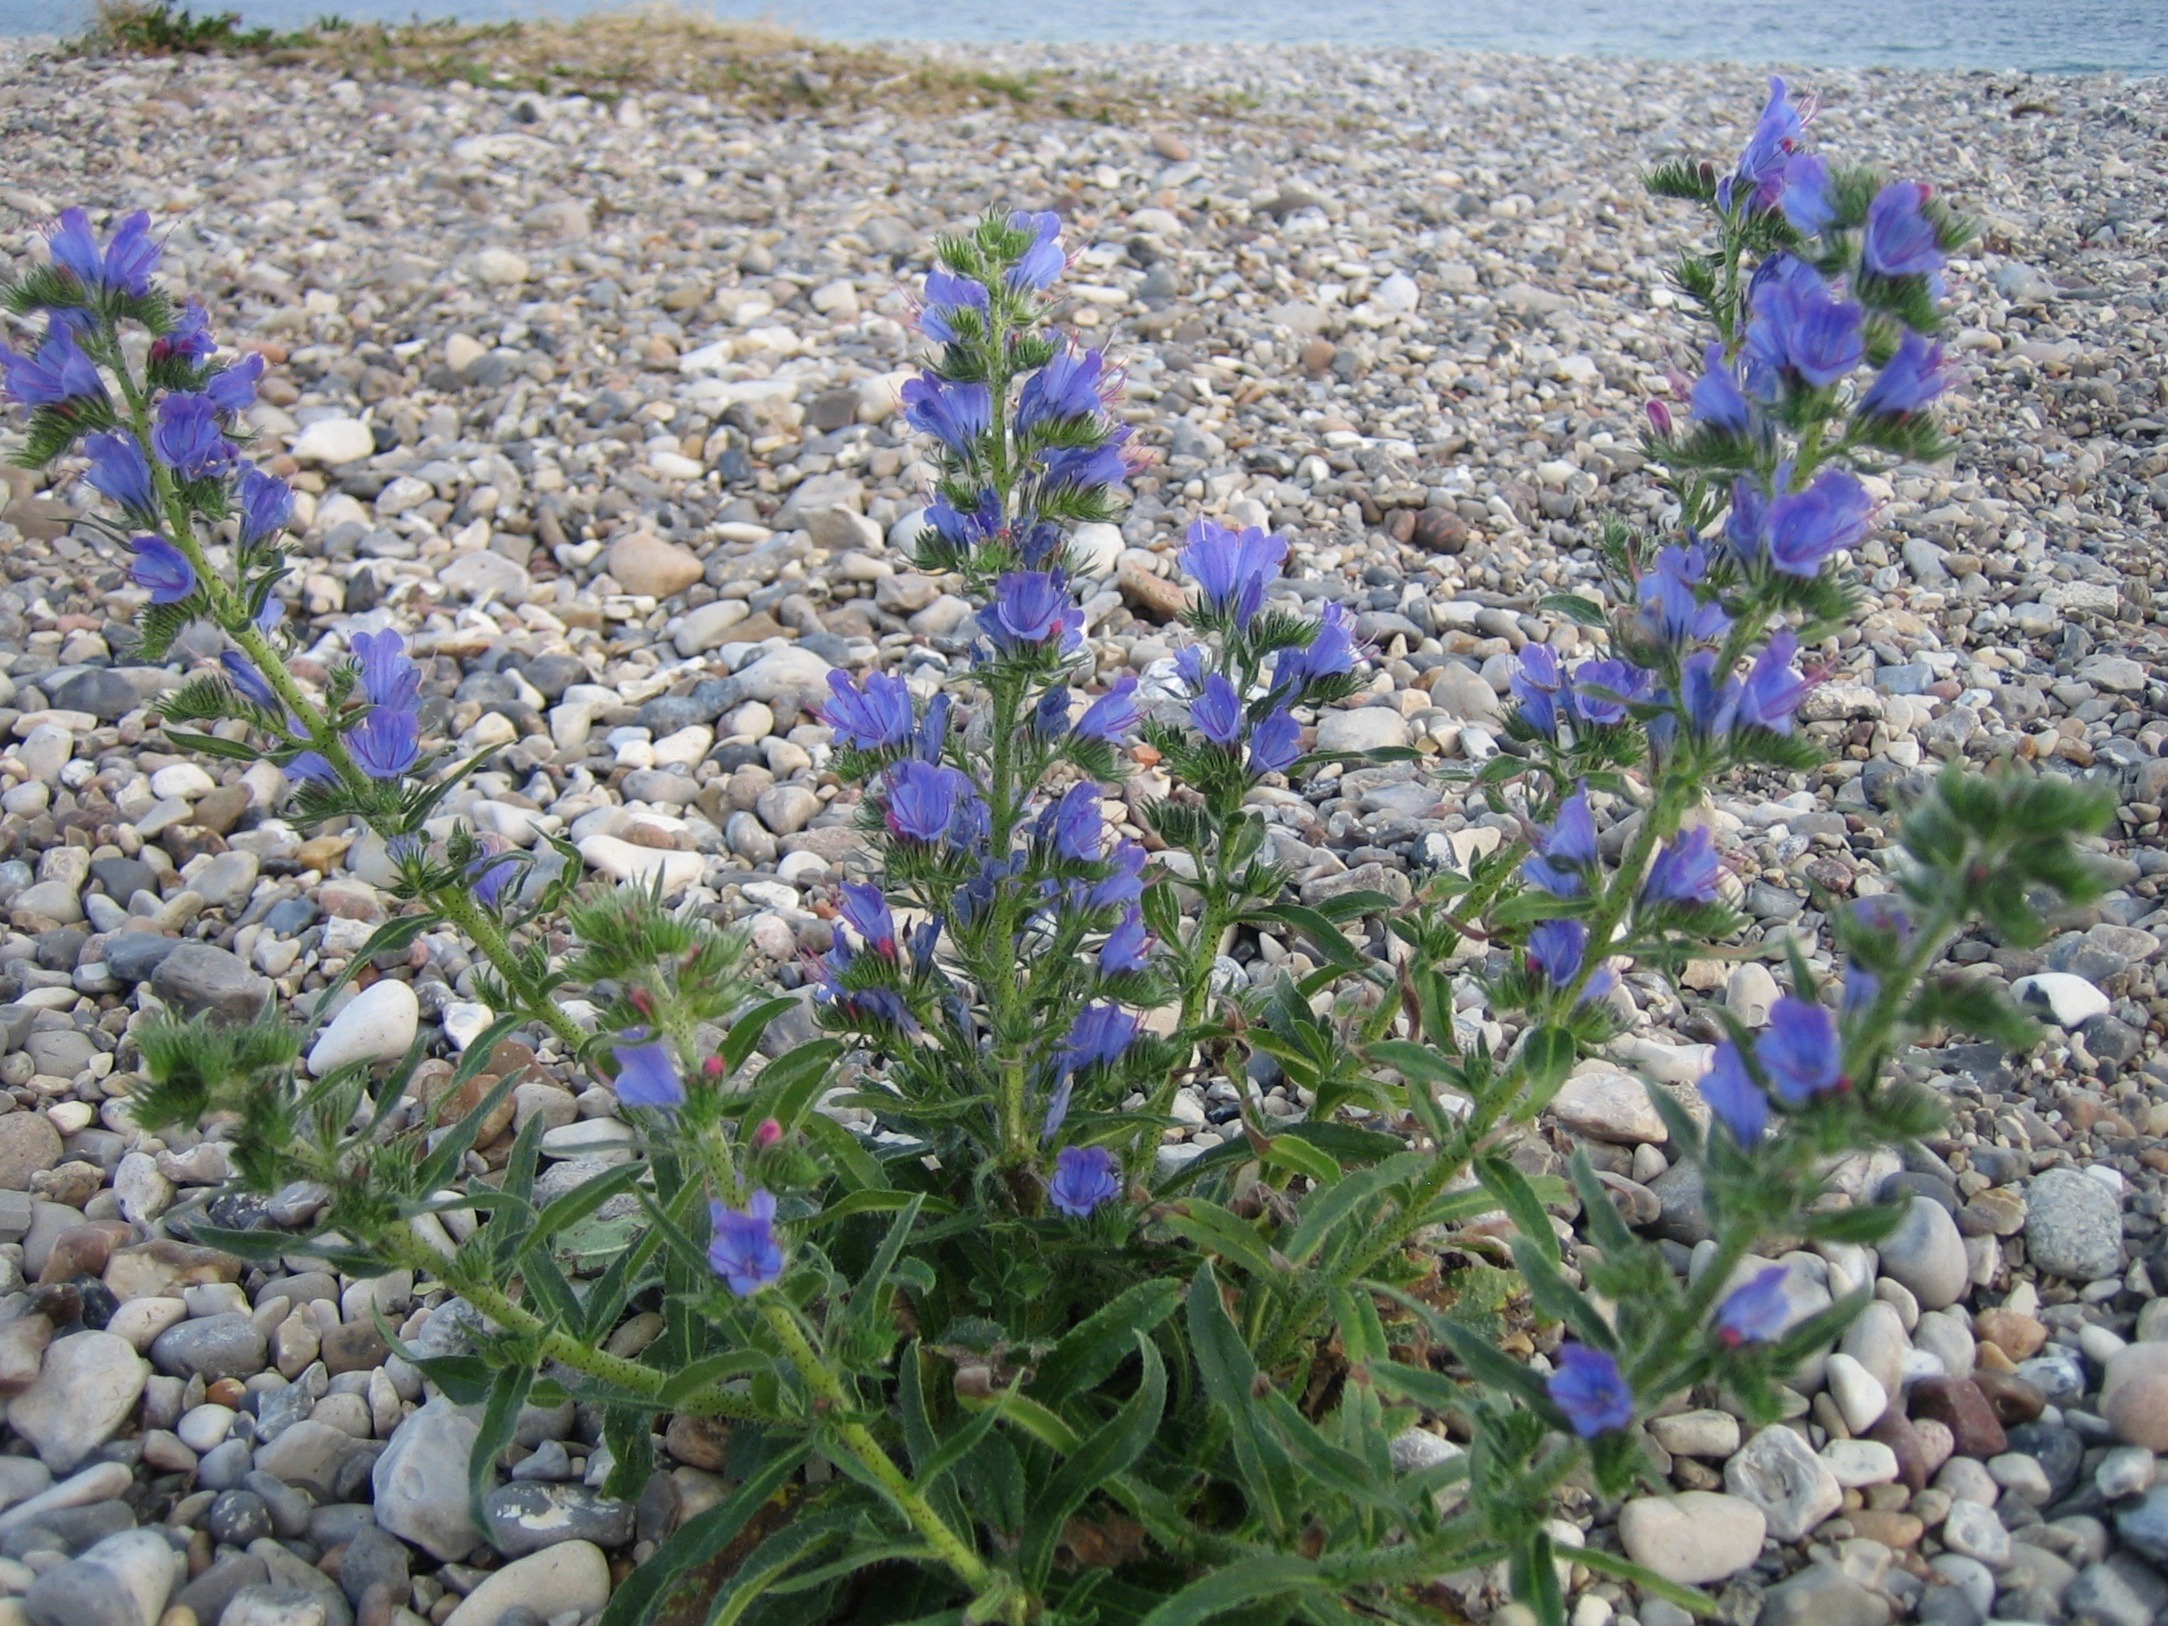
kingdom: Plantae
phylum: Tracheophyta
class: Magnoliopsida
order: Boraginales
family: Boraginaceae
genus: Echium
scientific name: Echium vulgare
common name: Slangehoved
